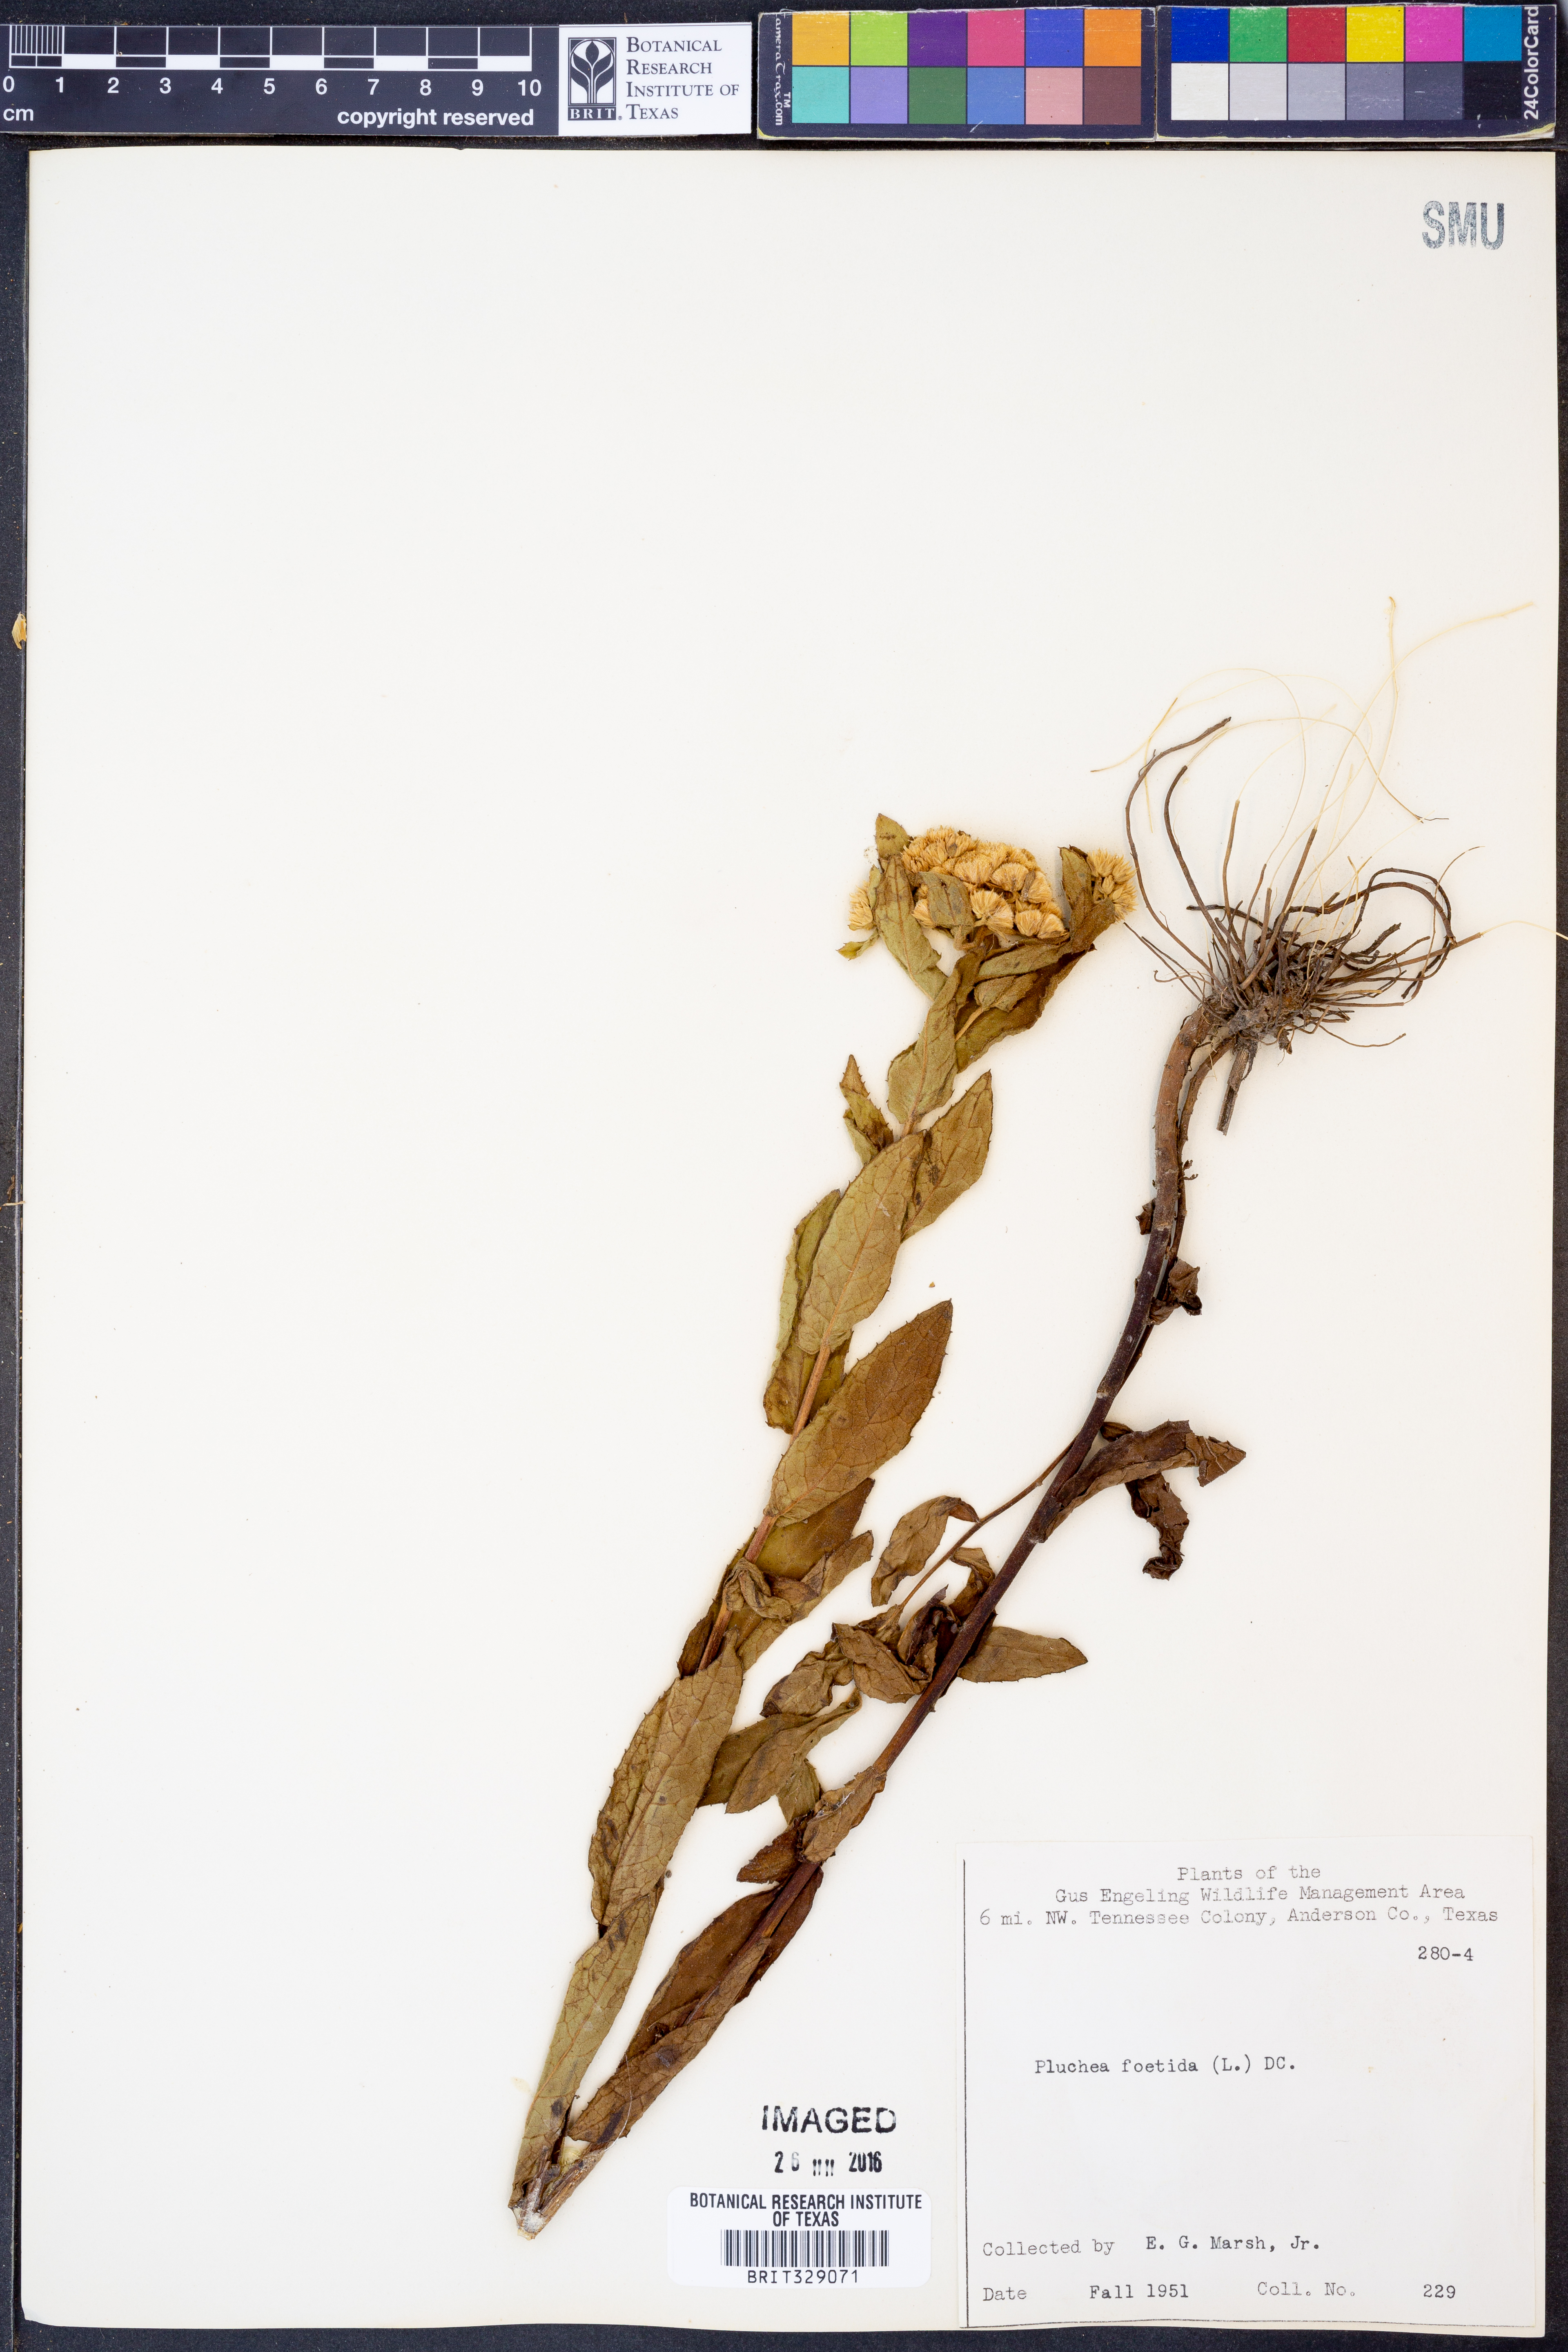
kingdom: Plantae
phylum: Tracheophyta
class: Magnoliopsida
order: Asterales
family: Asteraceae
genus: Pluchea
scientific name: Pluchea foetida
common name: Stinking camphorweed
